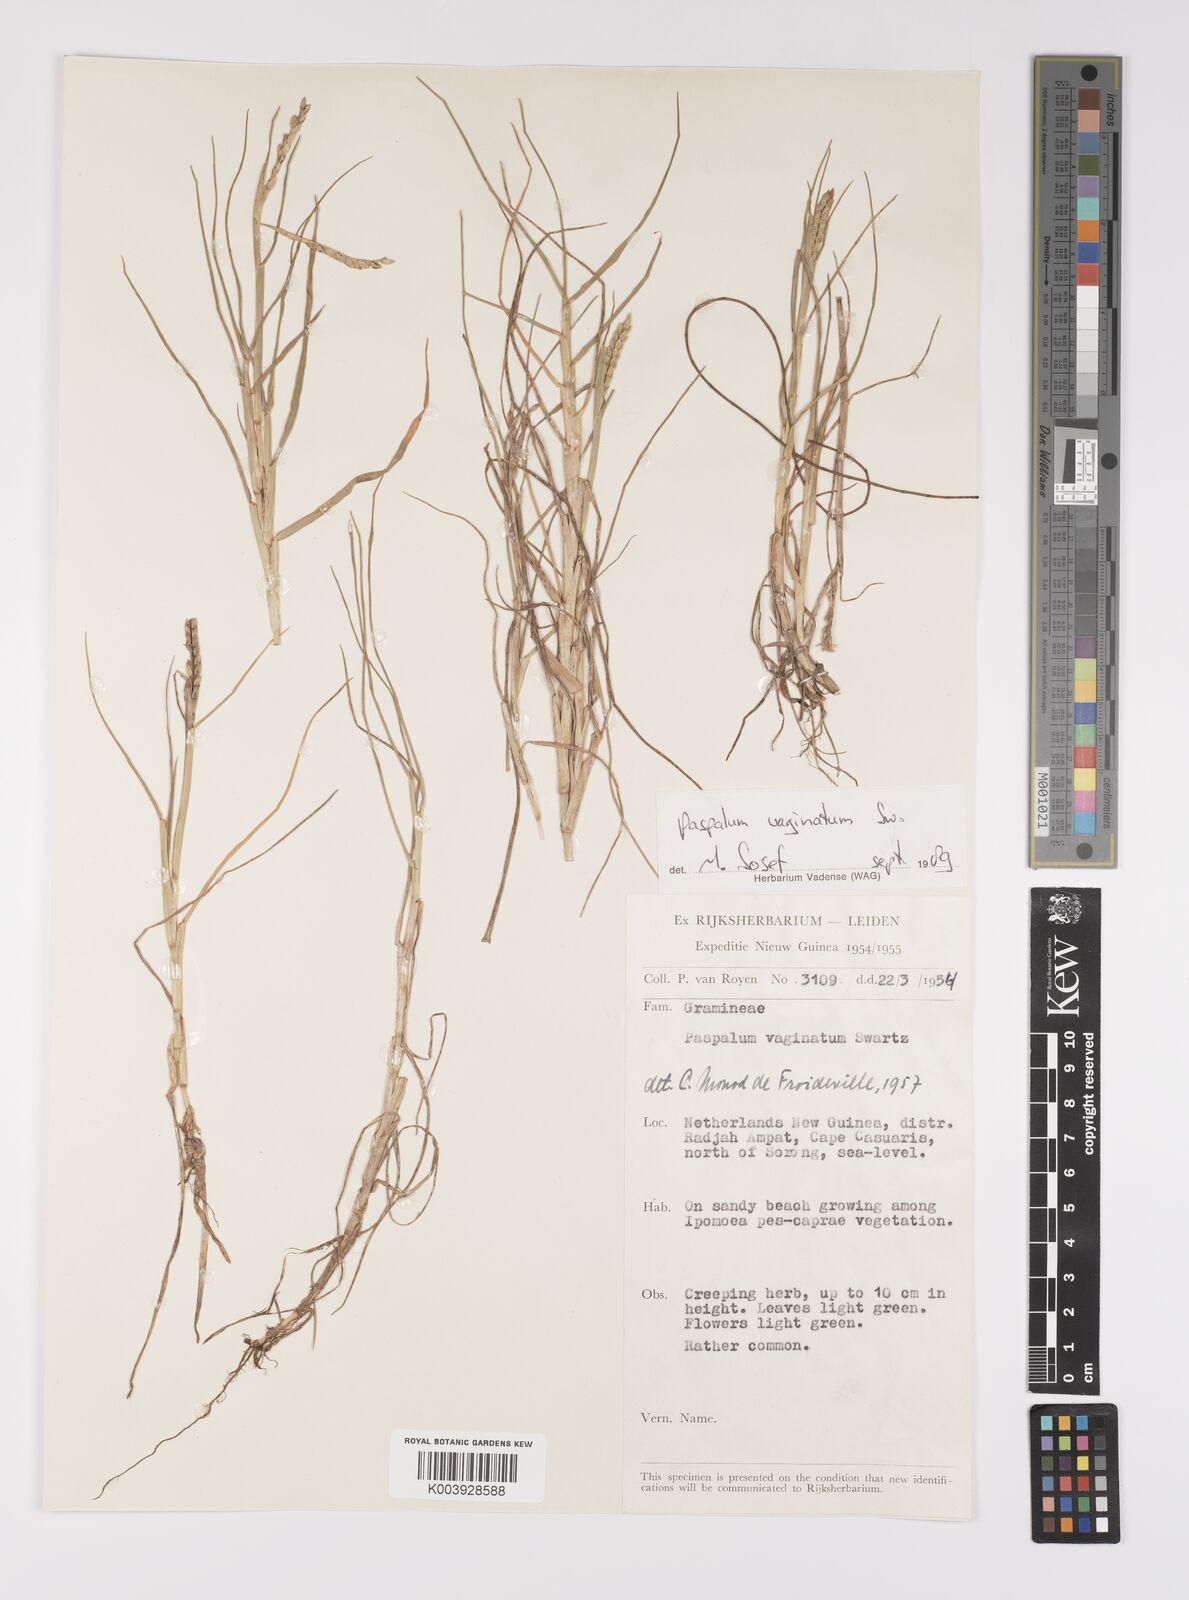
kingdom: Plantae
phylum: Tracheophyta
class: Liliopsida
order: Poales
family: Poaceae
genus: Paspalum
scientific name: Paspalum vaginatum
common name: Seashore paspalum
